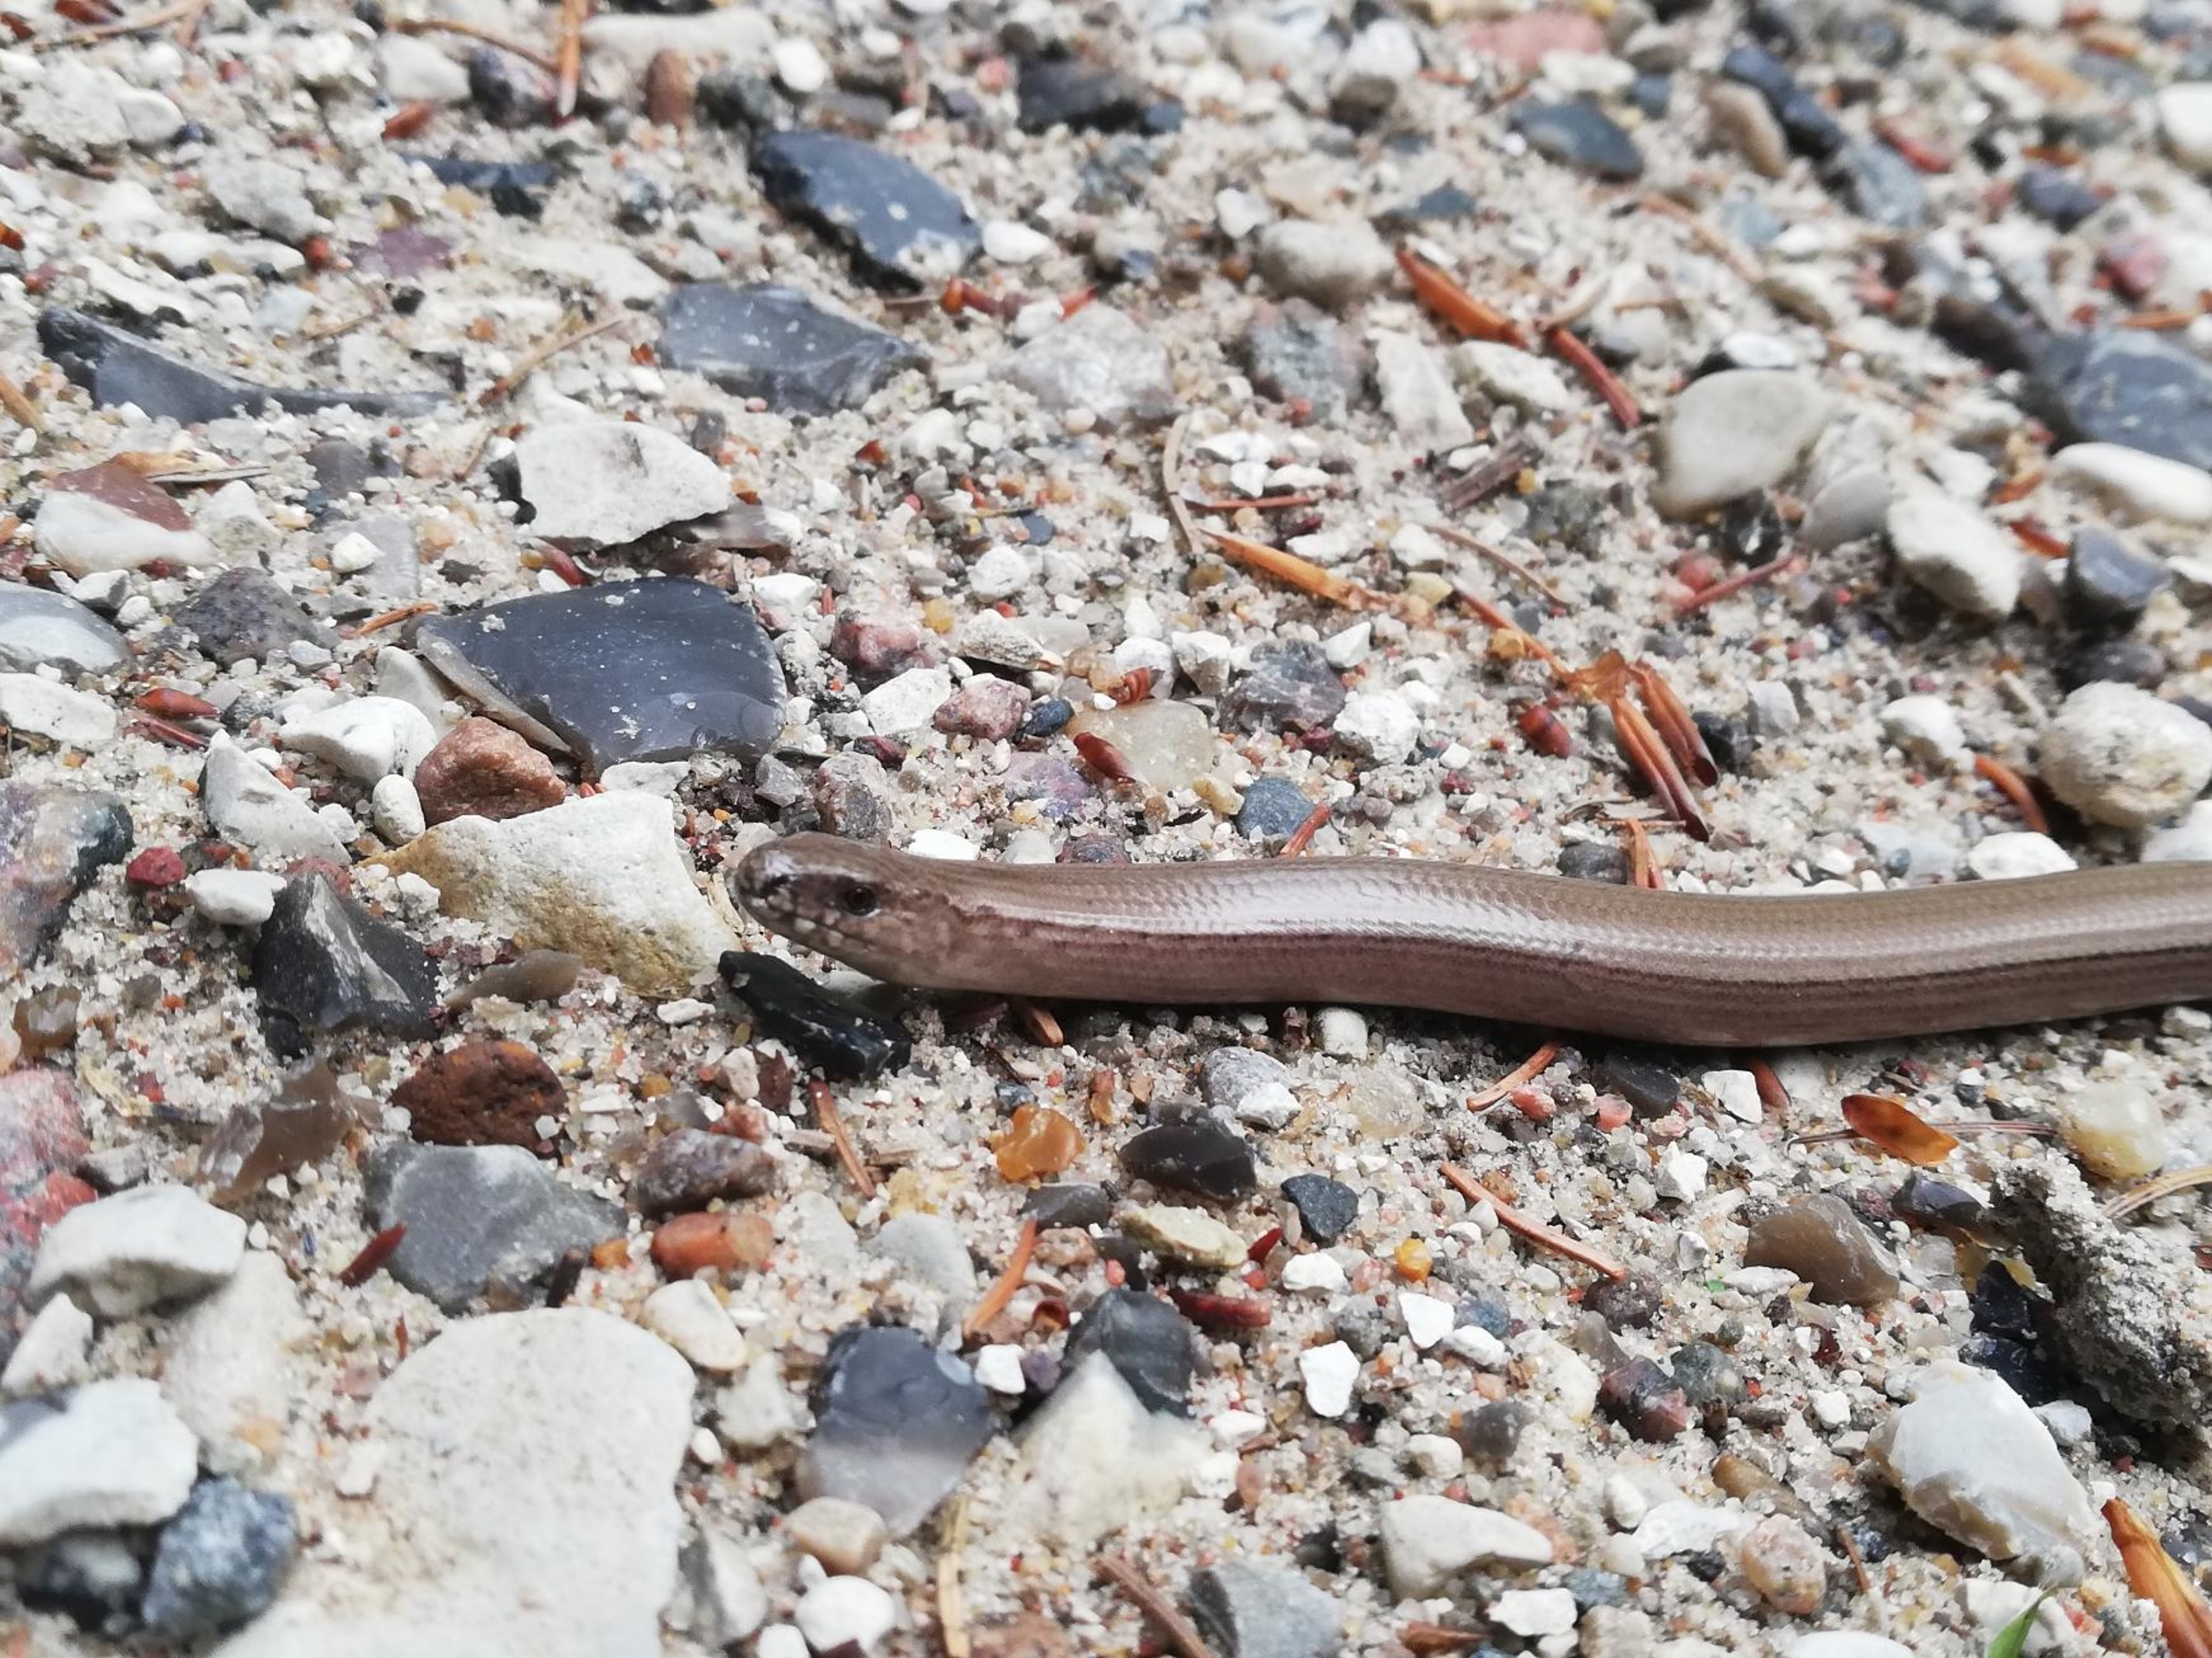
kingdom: Animalia
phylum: Chordata
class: Squamata
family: Anguidae
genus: Anguis
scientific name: Anguis fragilis
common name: Stålorm
